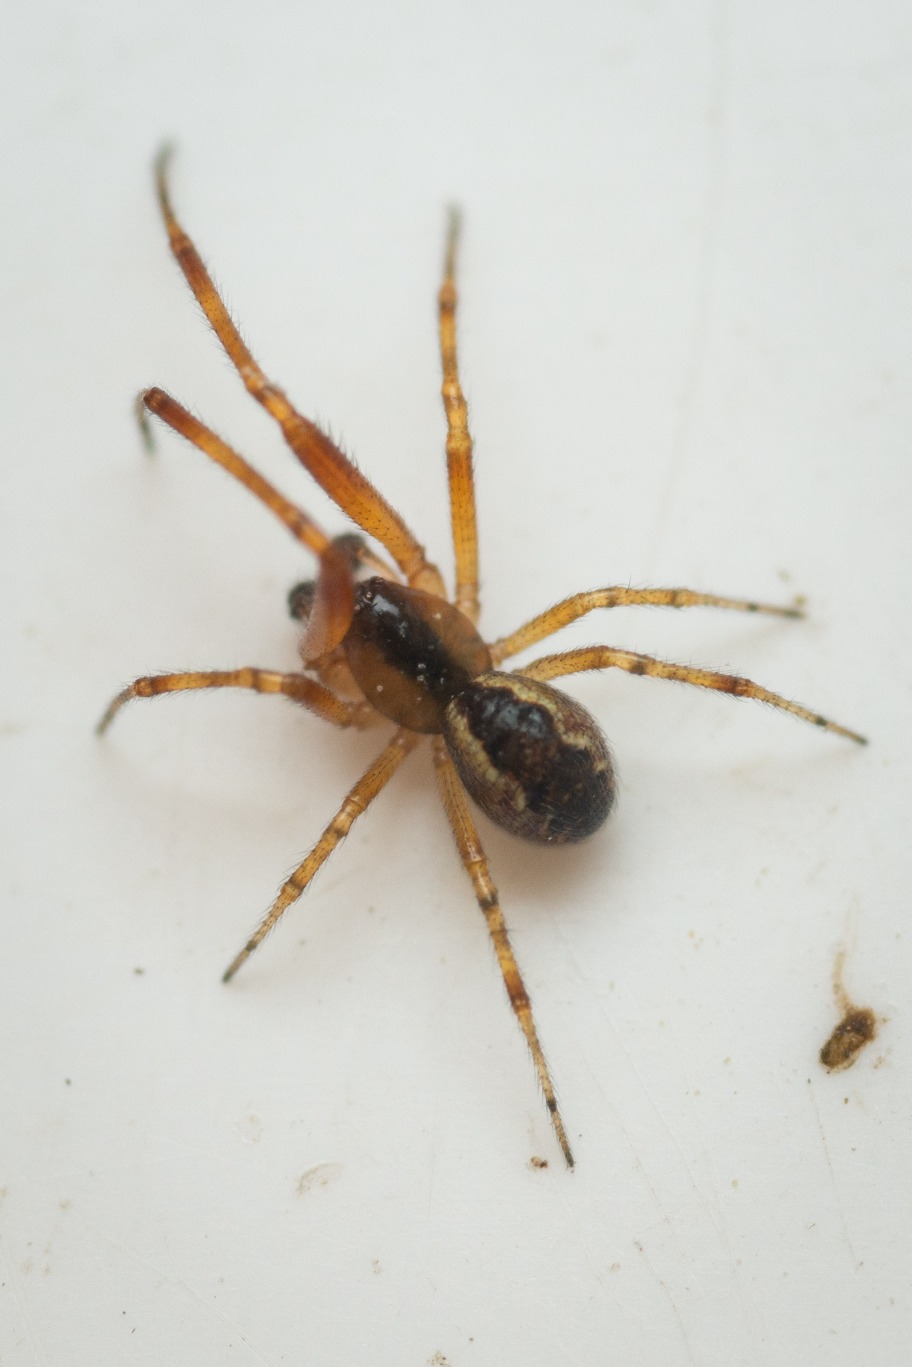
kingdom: Animalia
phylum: Arthropoda
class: Arachnida
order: Araneae
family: Theridiidae
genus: Anelosimus
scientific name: Anelosimus vittatus
